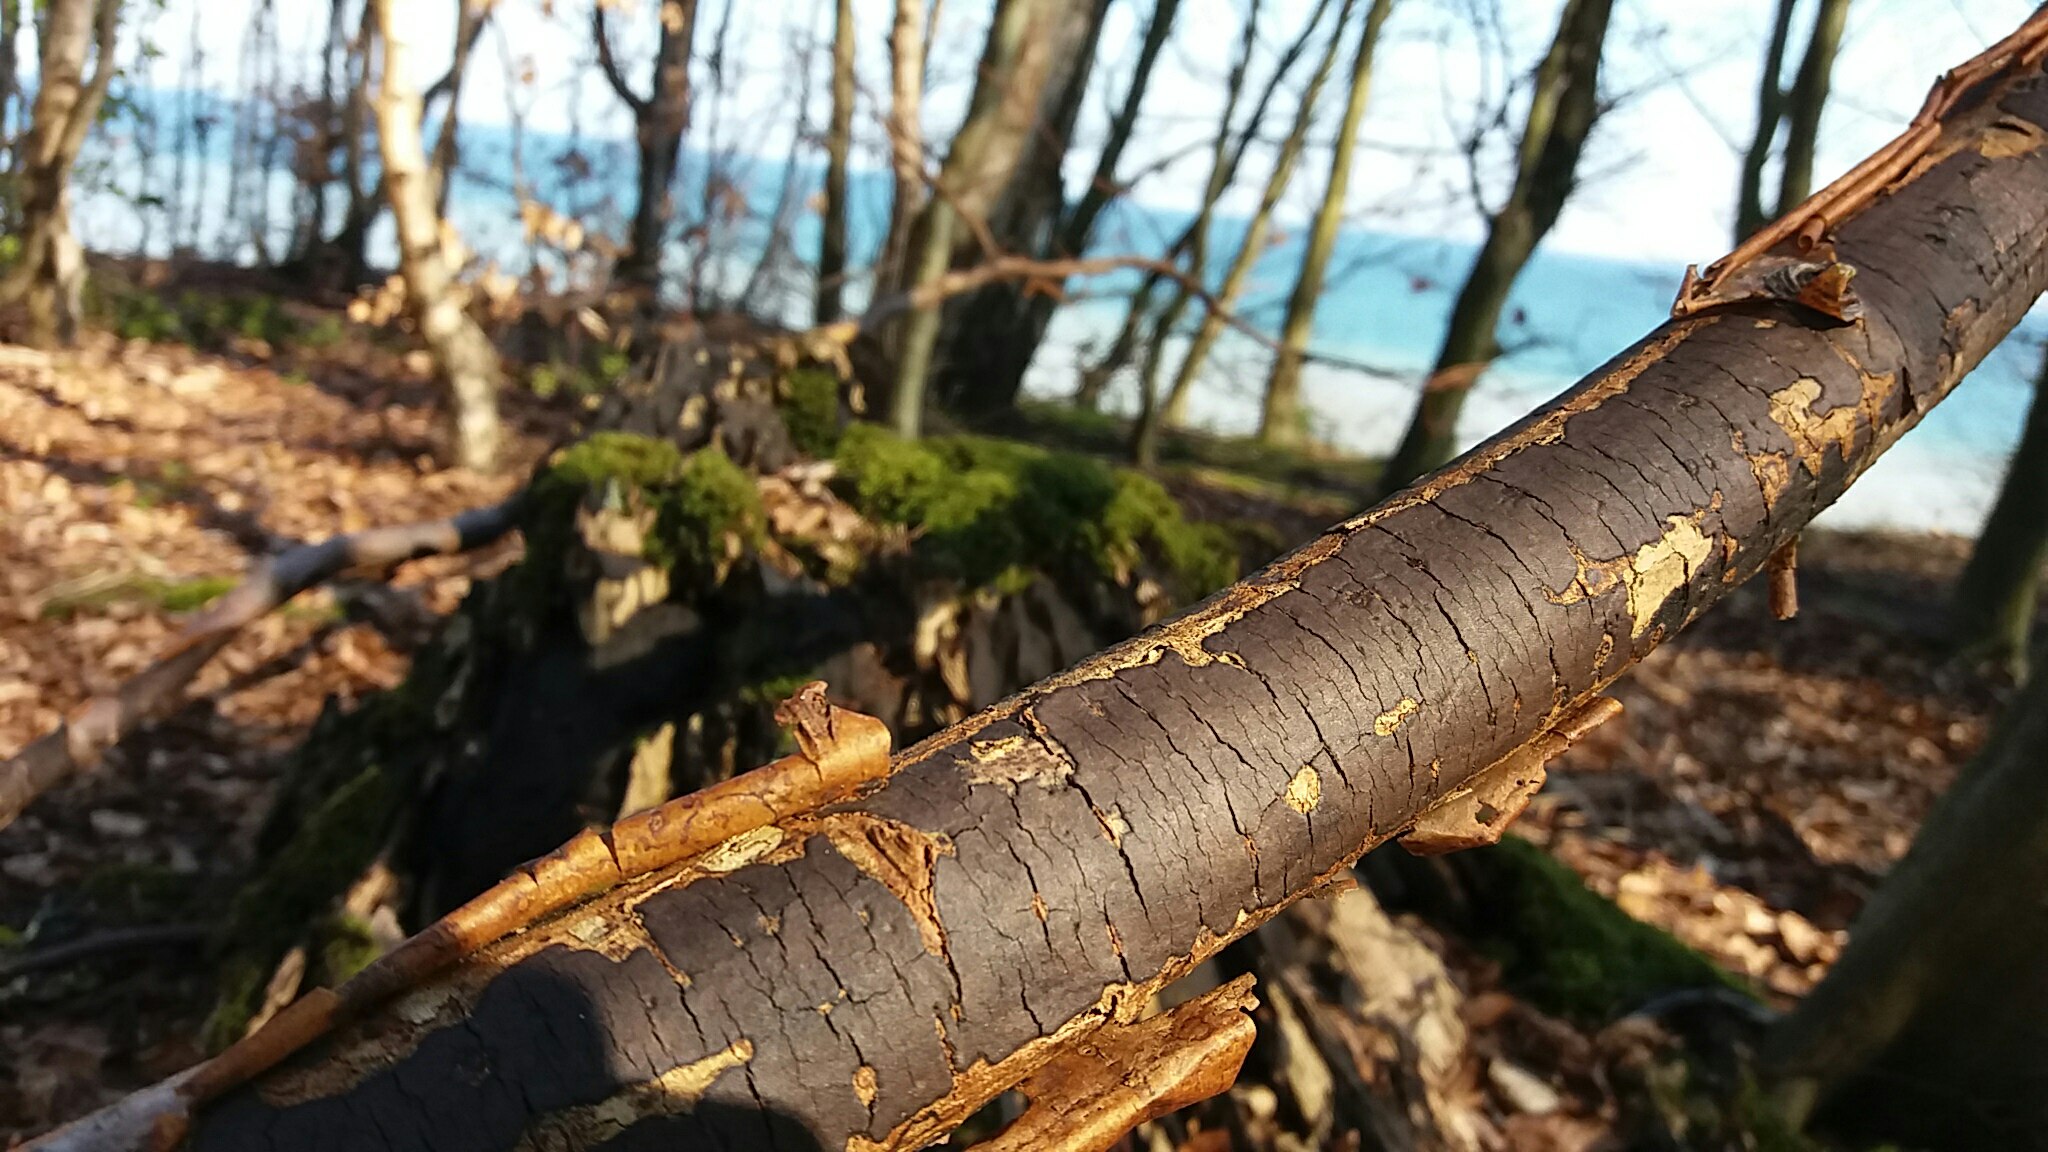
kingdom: Fungi
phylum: Ascomycota
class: Sordariomycetes
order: Xylariales
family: Diatrypaceae
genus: Diatrype
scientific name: Diatrype decorticata
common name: barksprænger-kulskorpe
